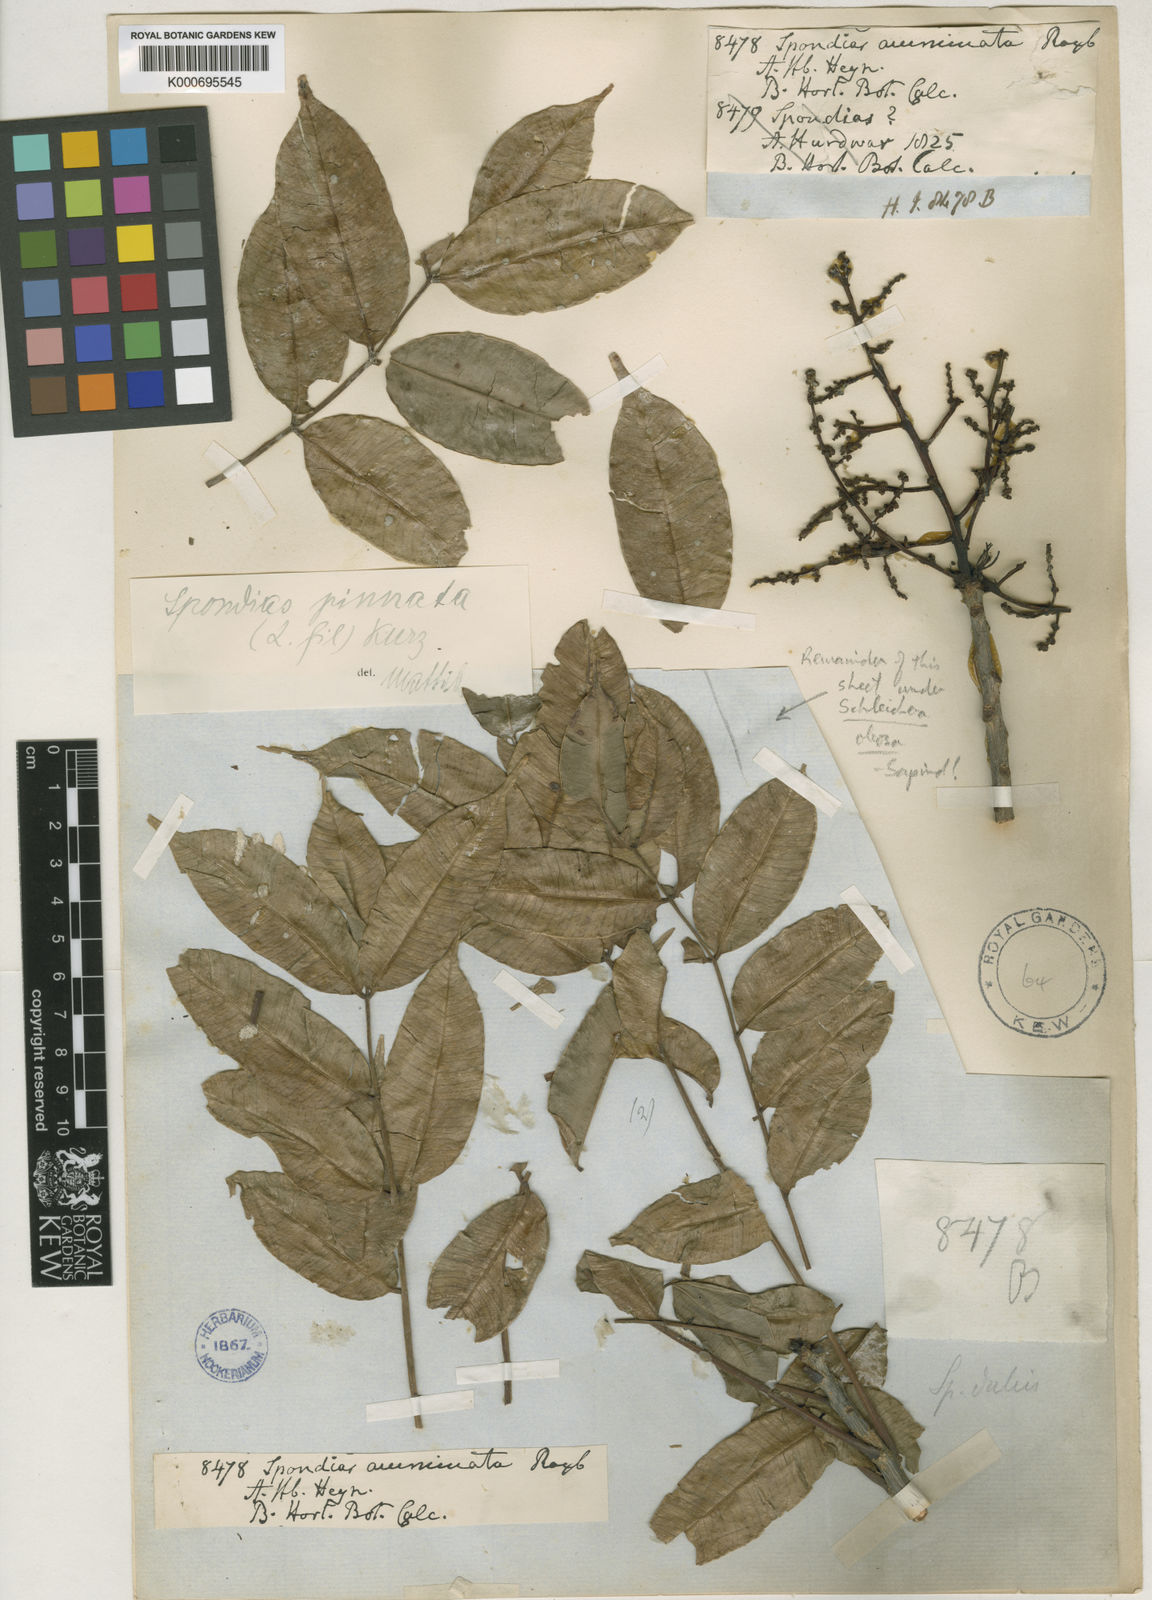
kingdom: Plantae
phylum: Tracheophyta
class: Magnoliopsida
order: Sapindales
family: Anacardiaceae
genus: Spondias
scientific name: Spondias pinnata
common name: Common hog-plum
